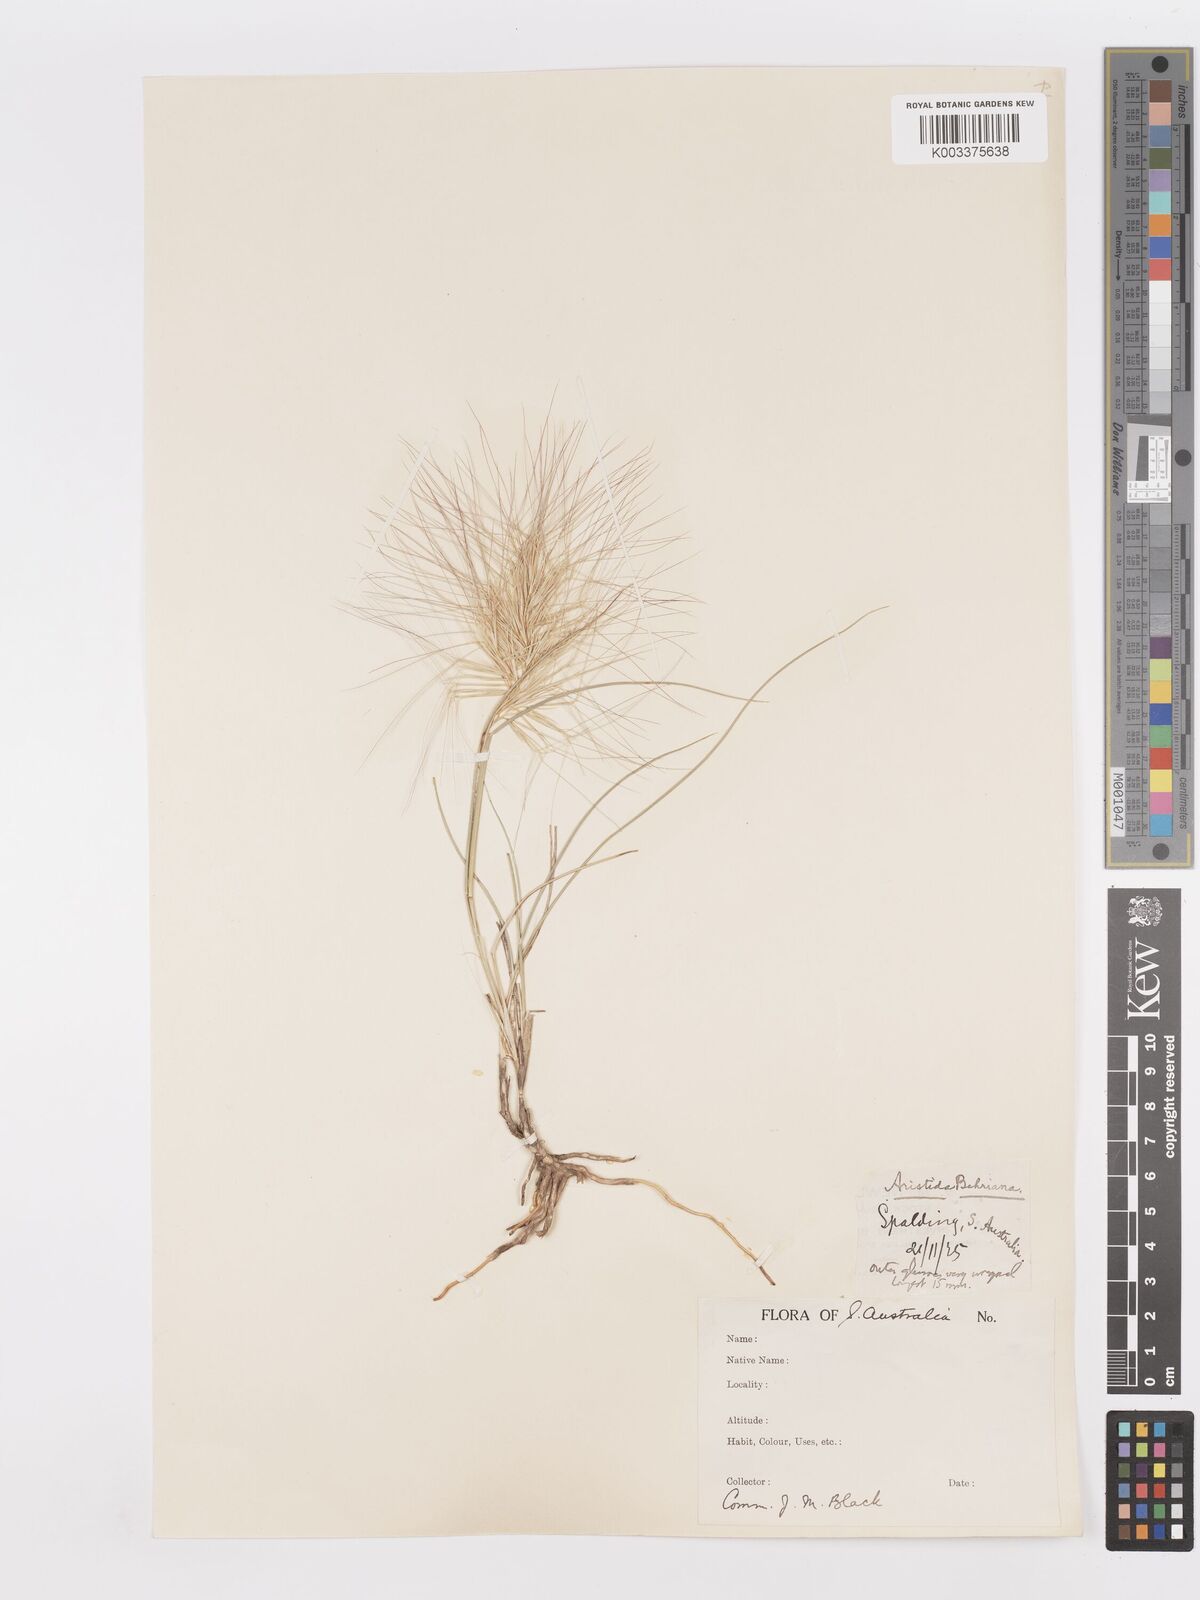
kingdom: Plantae
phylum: Tracheophyta
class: Liliopsida
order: Poales
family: Poaceae
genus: Aristida
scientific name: Aristida behriana
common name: Long-awn wire grass
